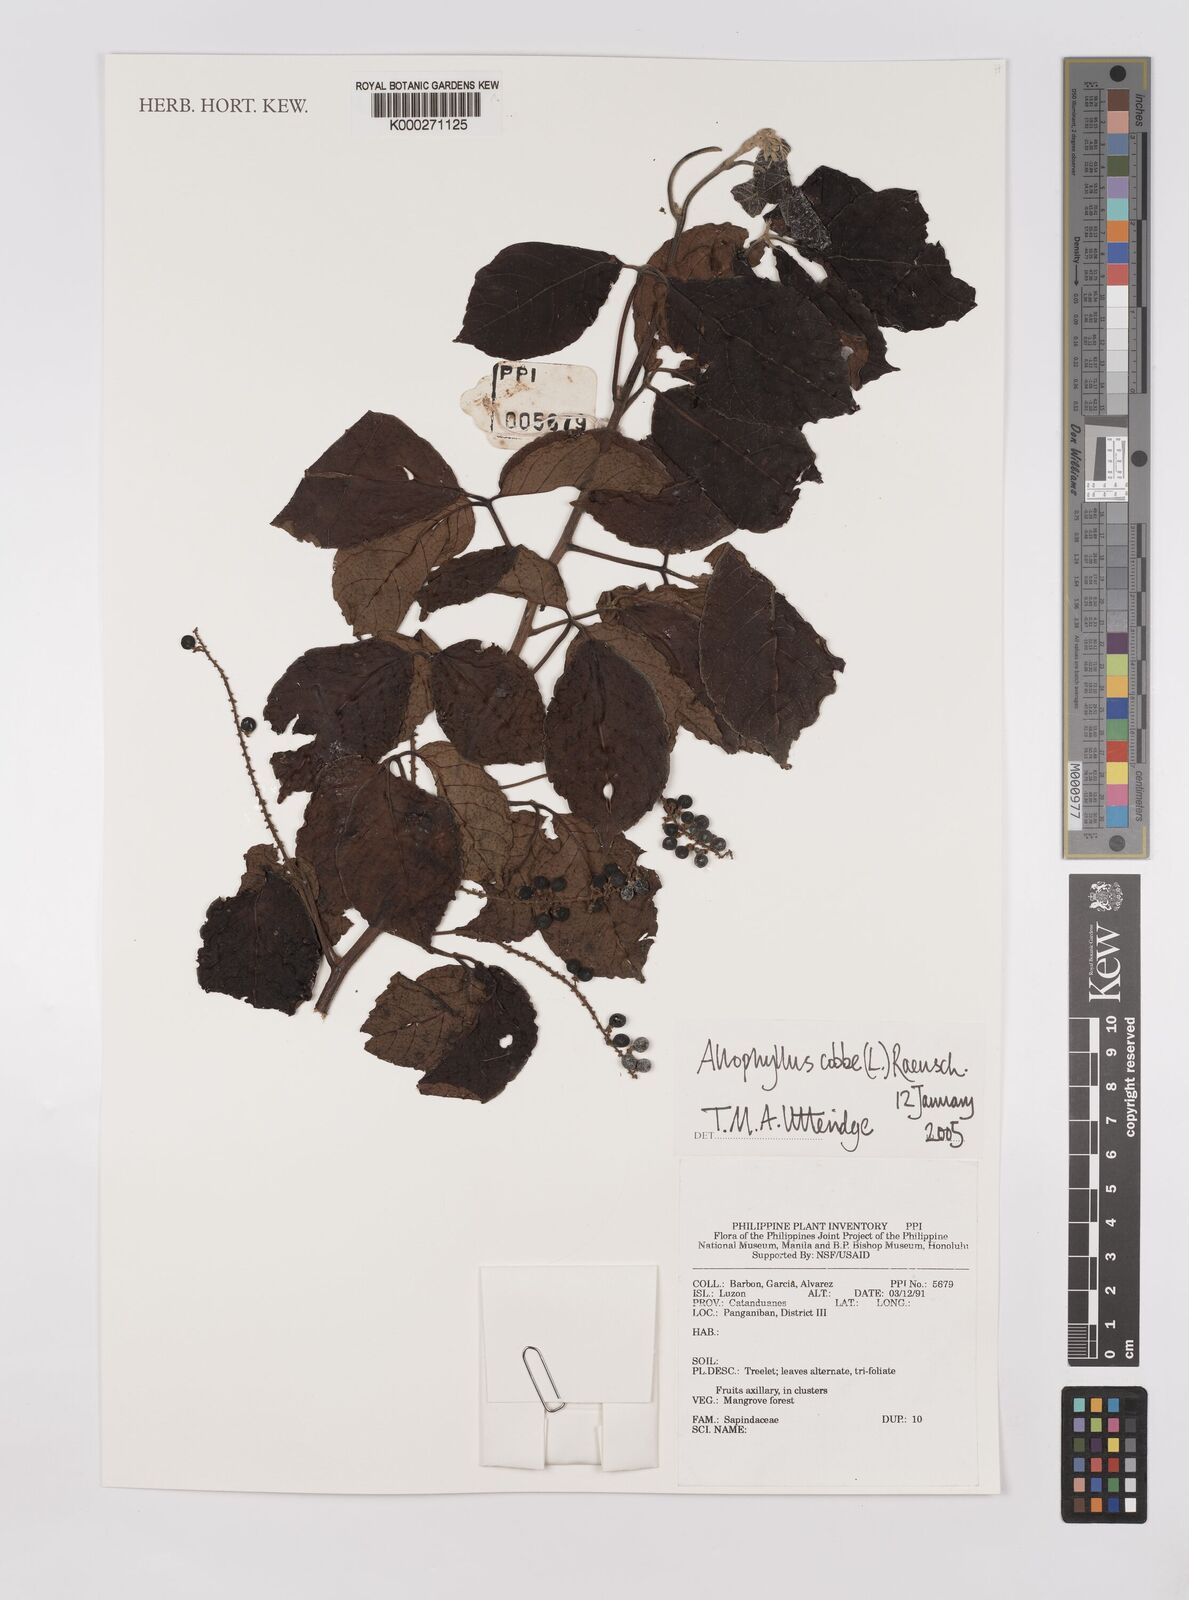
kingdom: Plantae
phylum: Tracheophyta
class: Magnoliopsida
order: Sapindales
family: Sapindaceae
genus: Allophylus
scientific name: Allophylus
